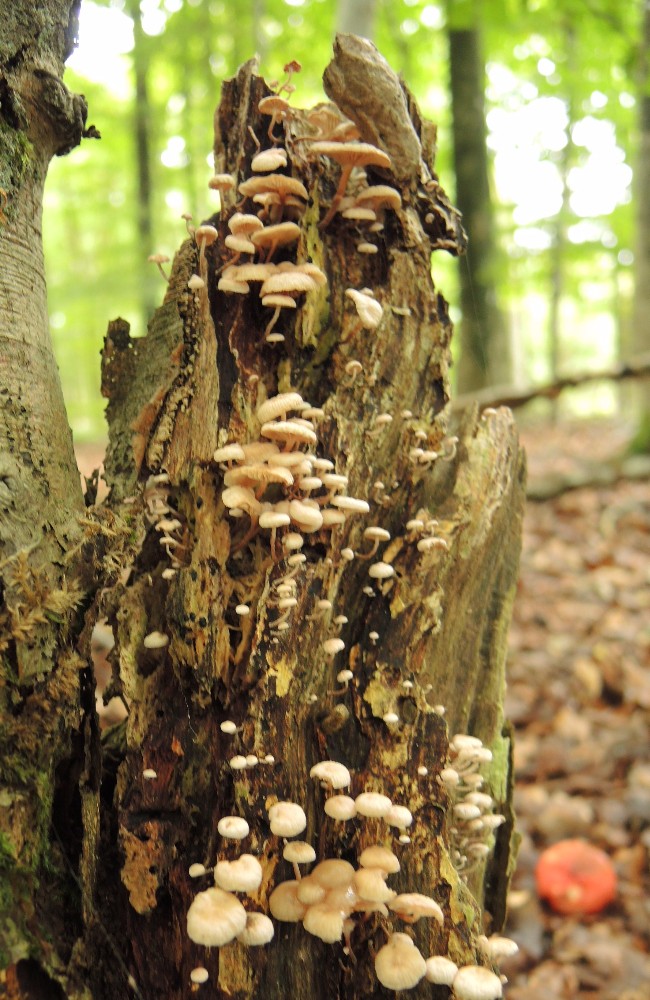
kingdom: Fungi
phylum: Basidiomycota
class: Agaricomycetes
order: Agaricales
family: Omphalotaceae
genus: Collybiopsis
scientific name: Collybiopsis ramealis
